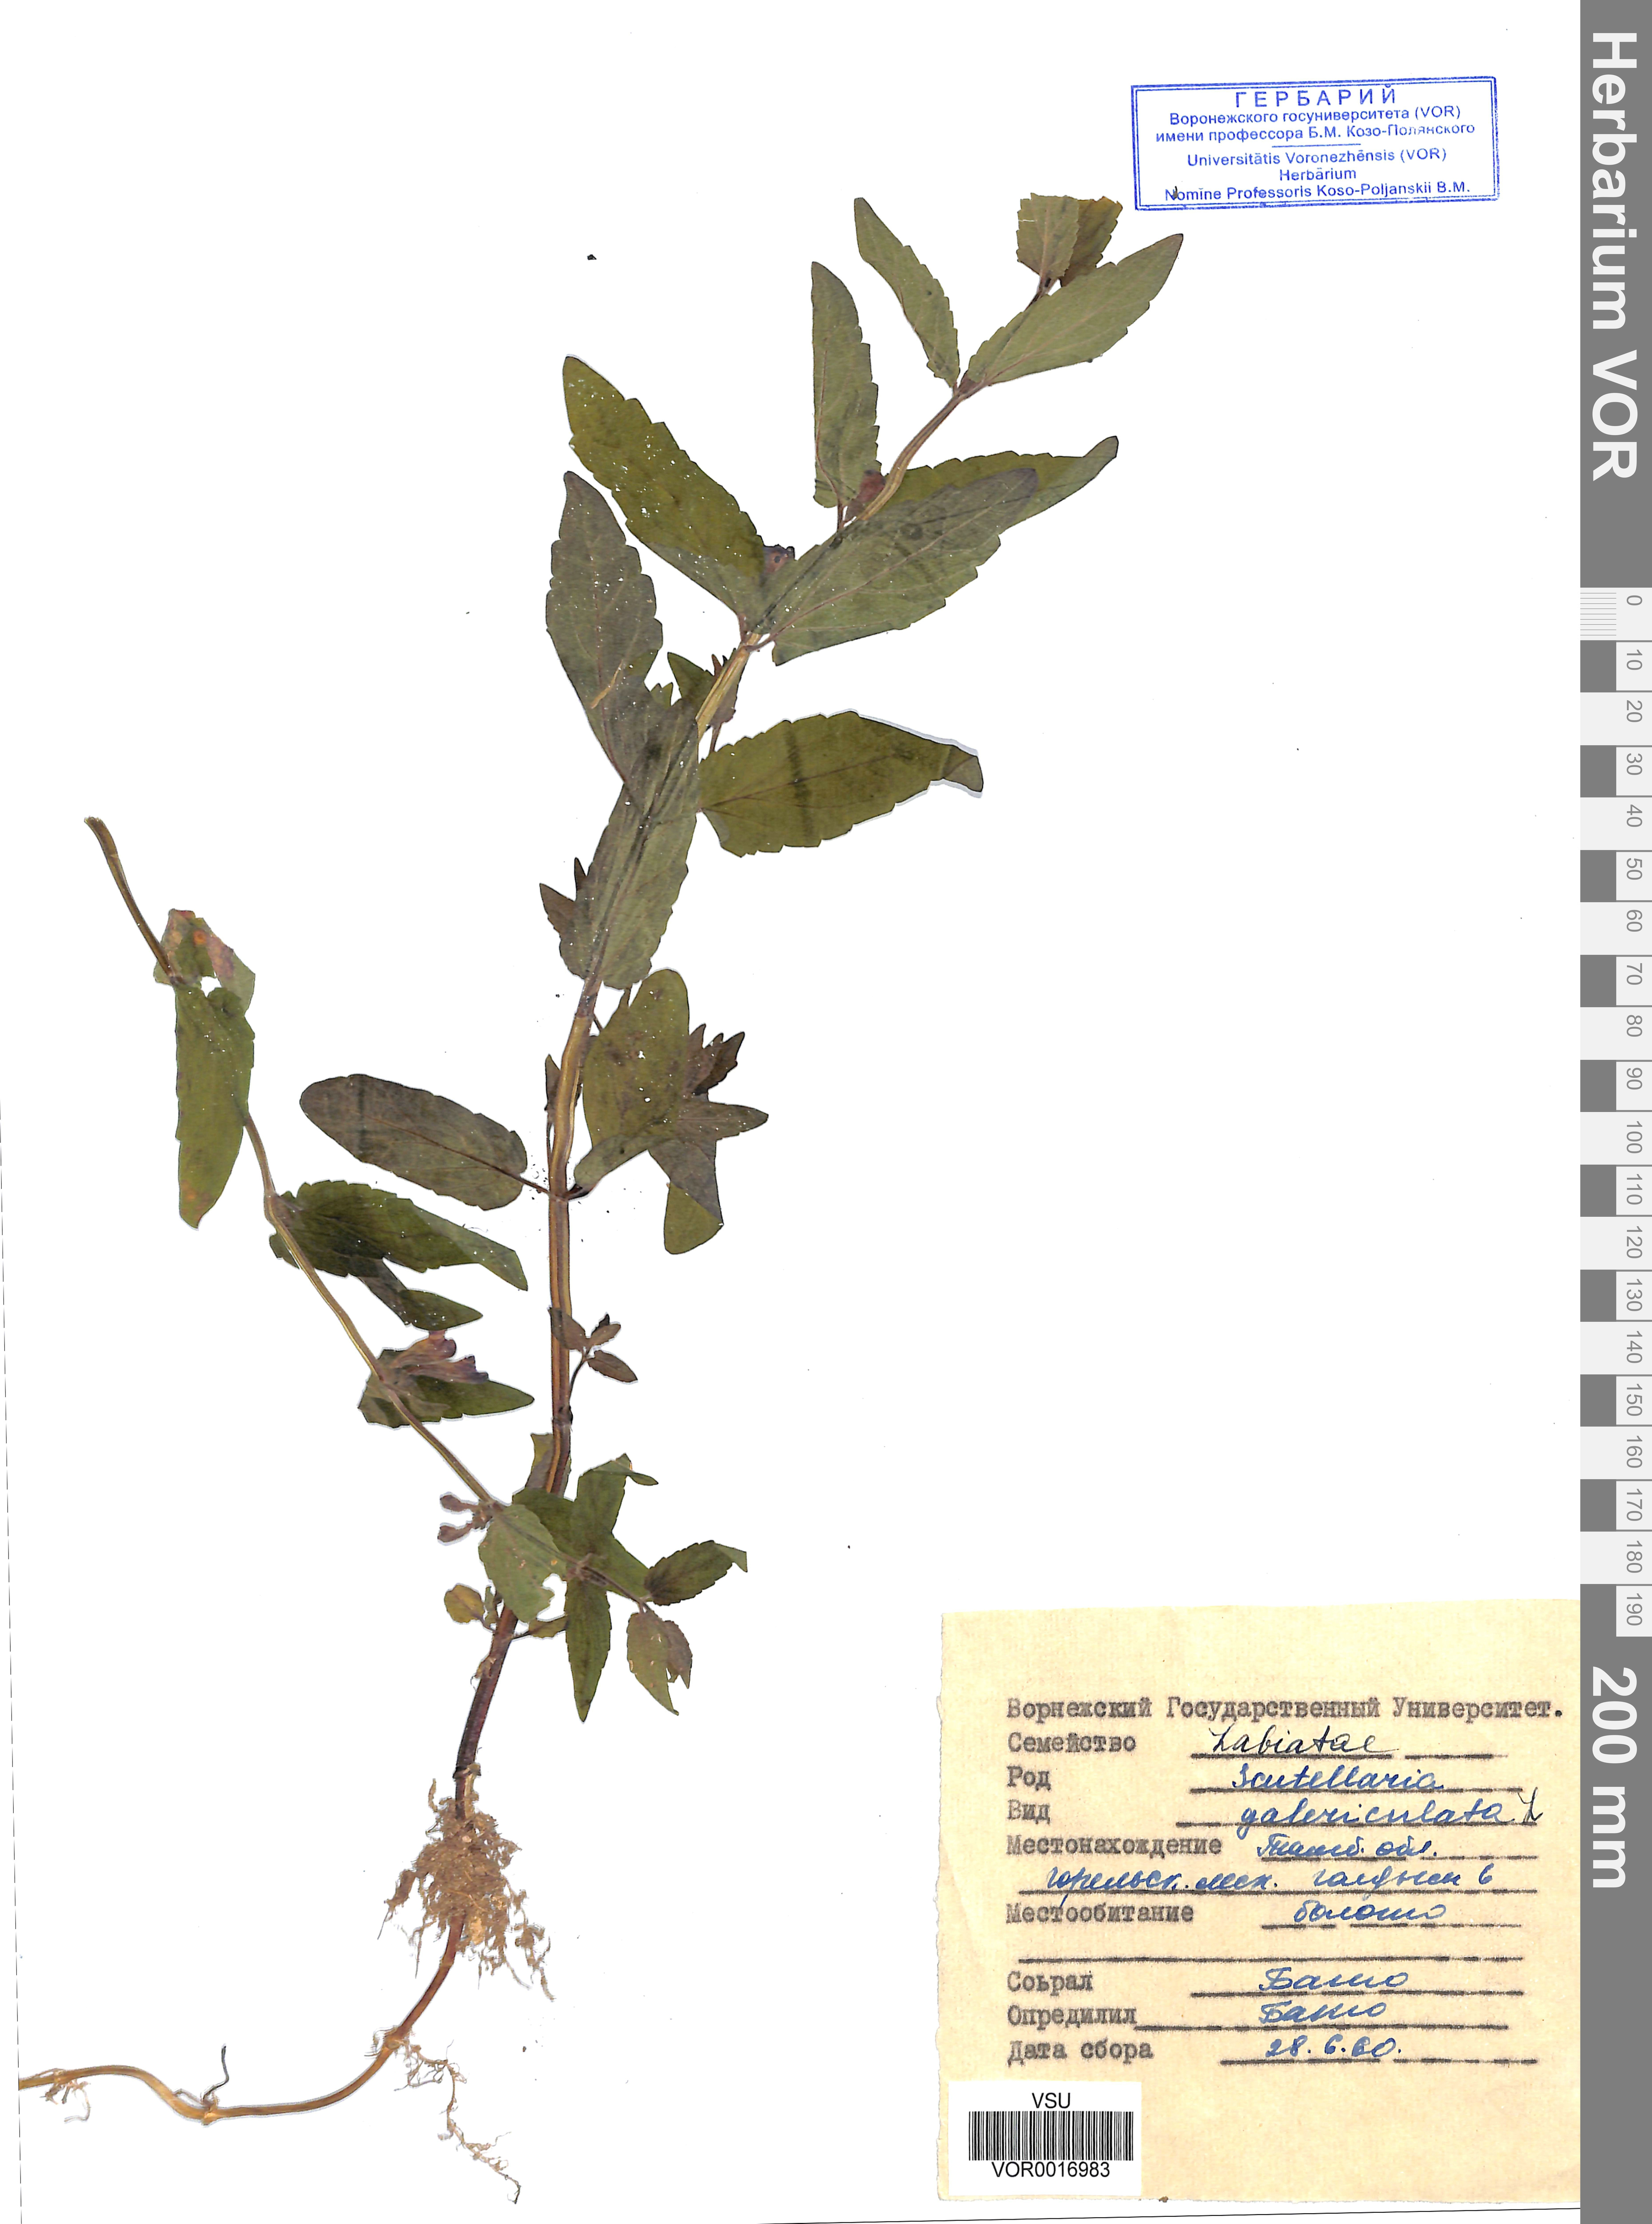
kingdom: Plantae
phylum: Tracheophyta
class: Magnoliopsida
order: Lamiales
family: Lamiaceae
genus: Scutellaria
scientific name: Scutellaria galericulata
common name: Skullcap
